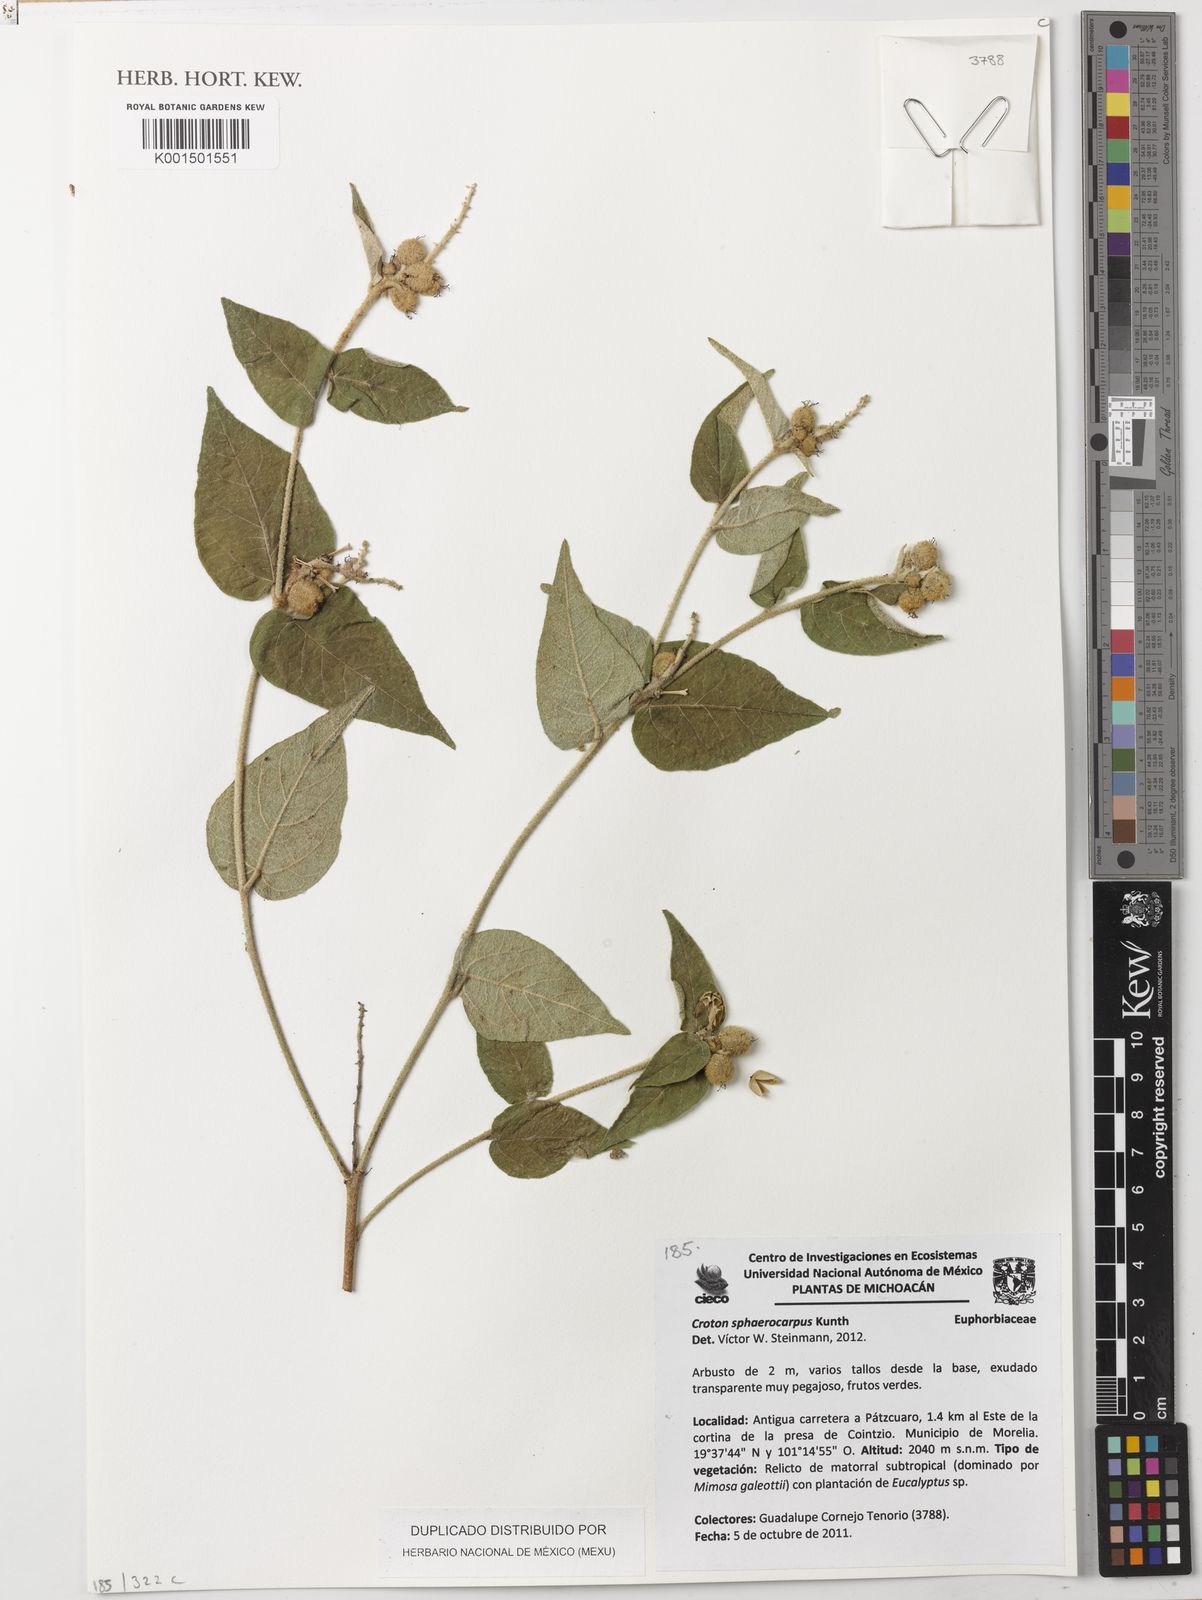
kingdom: Plantae
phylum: Tracheophyta
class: Magnoliopsida
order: Malpighiales
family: Euphorbiaceae
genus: Croton
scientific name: Croton morifolius
